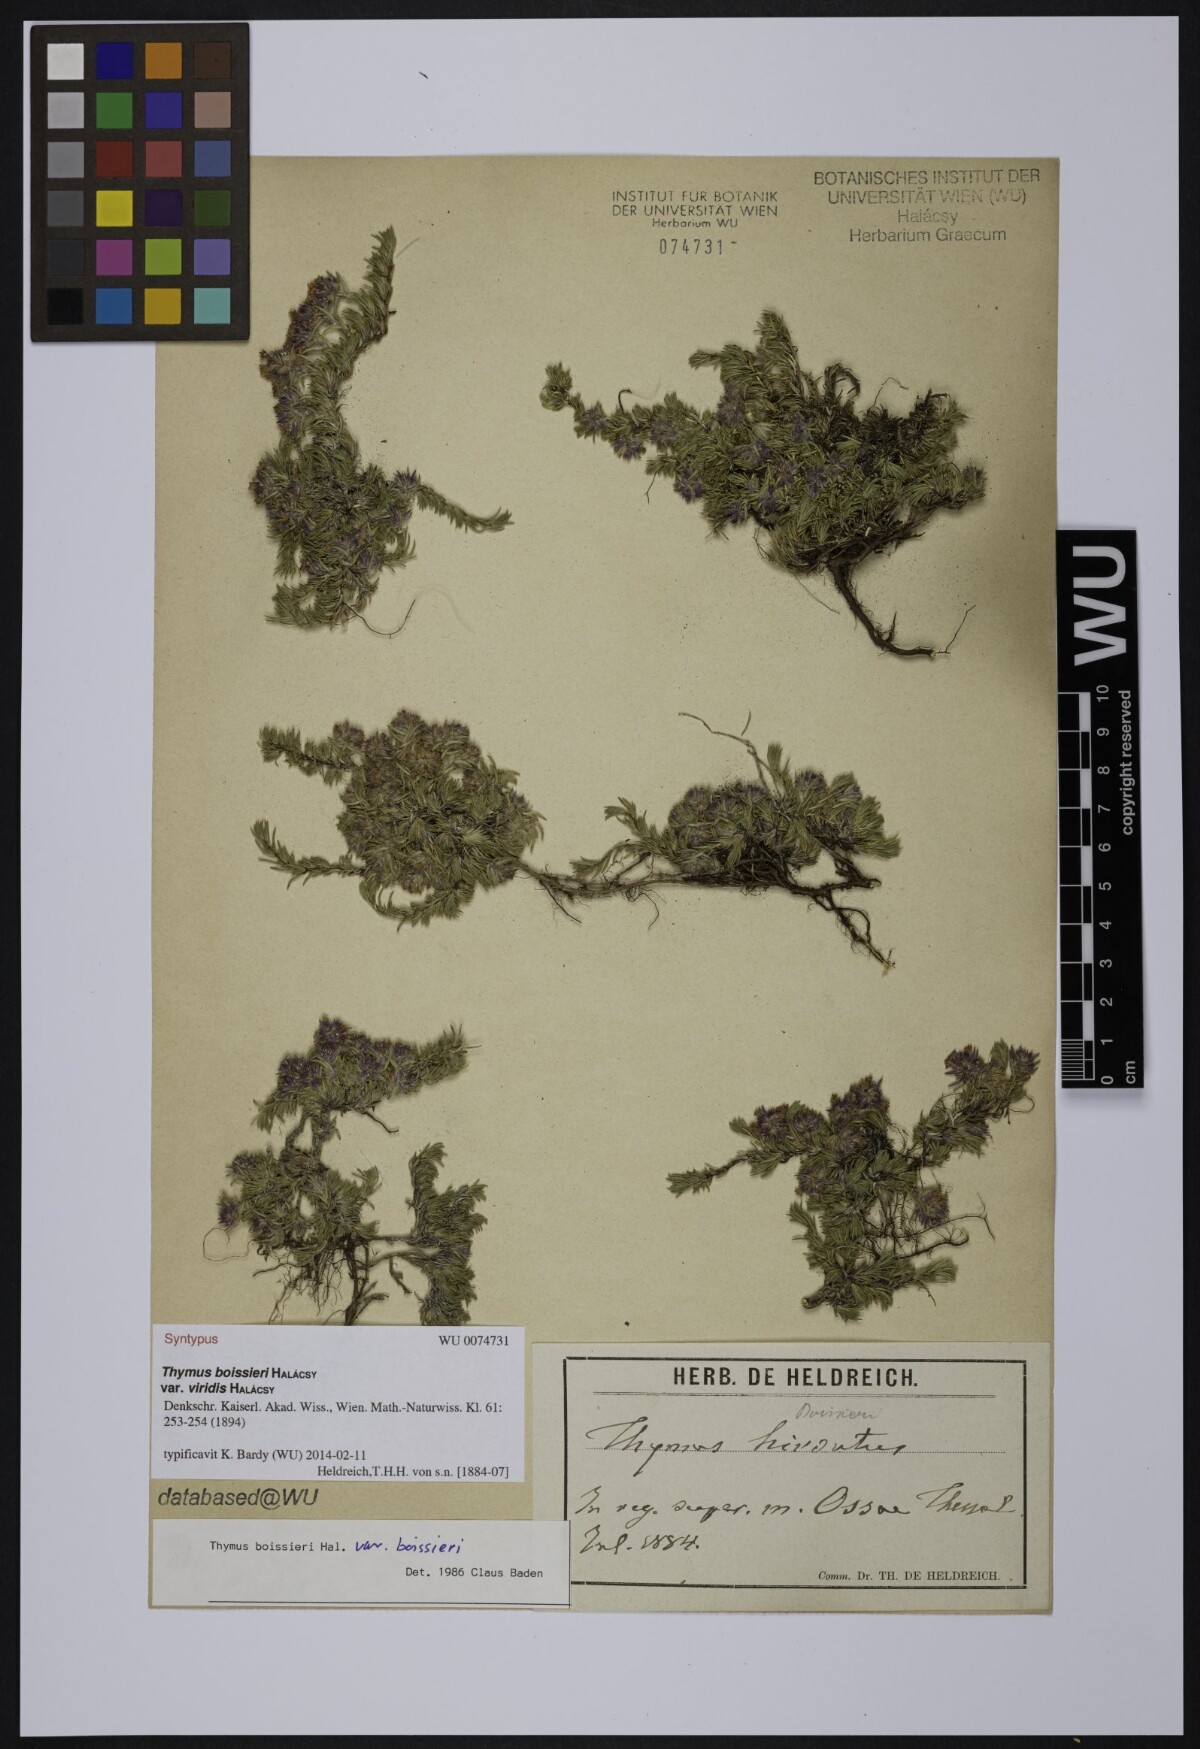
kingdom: Plantae
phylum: Tracheophyta
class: Magnoliopsida
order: Lamiales
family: Lamiaceae
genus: Thymus
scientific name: Thymus boissieri
